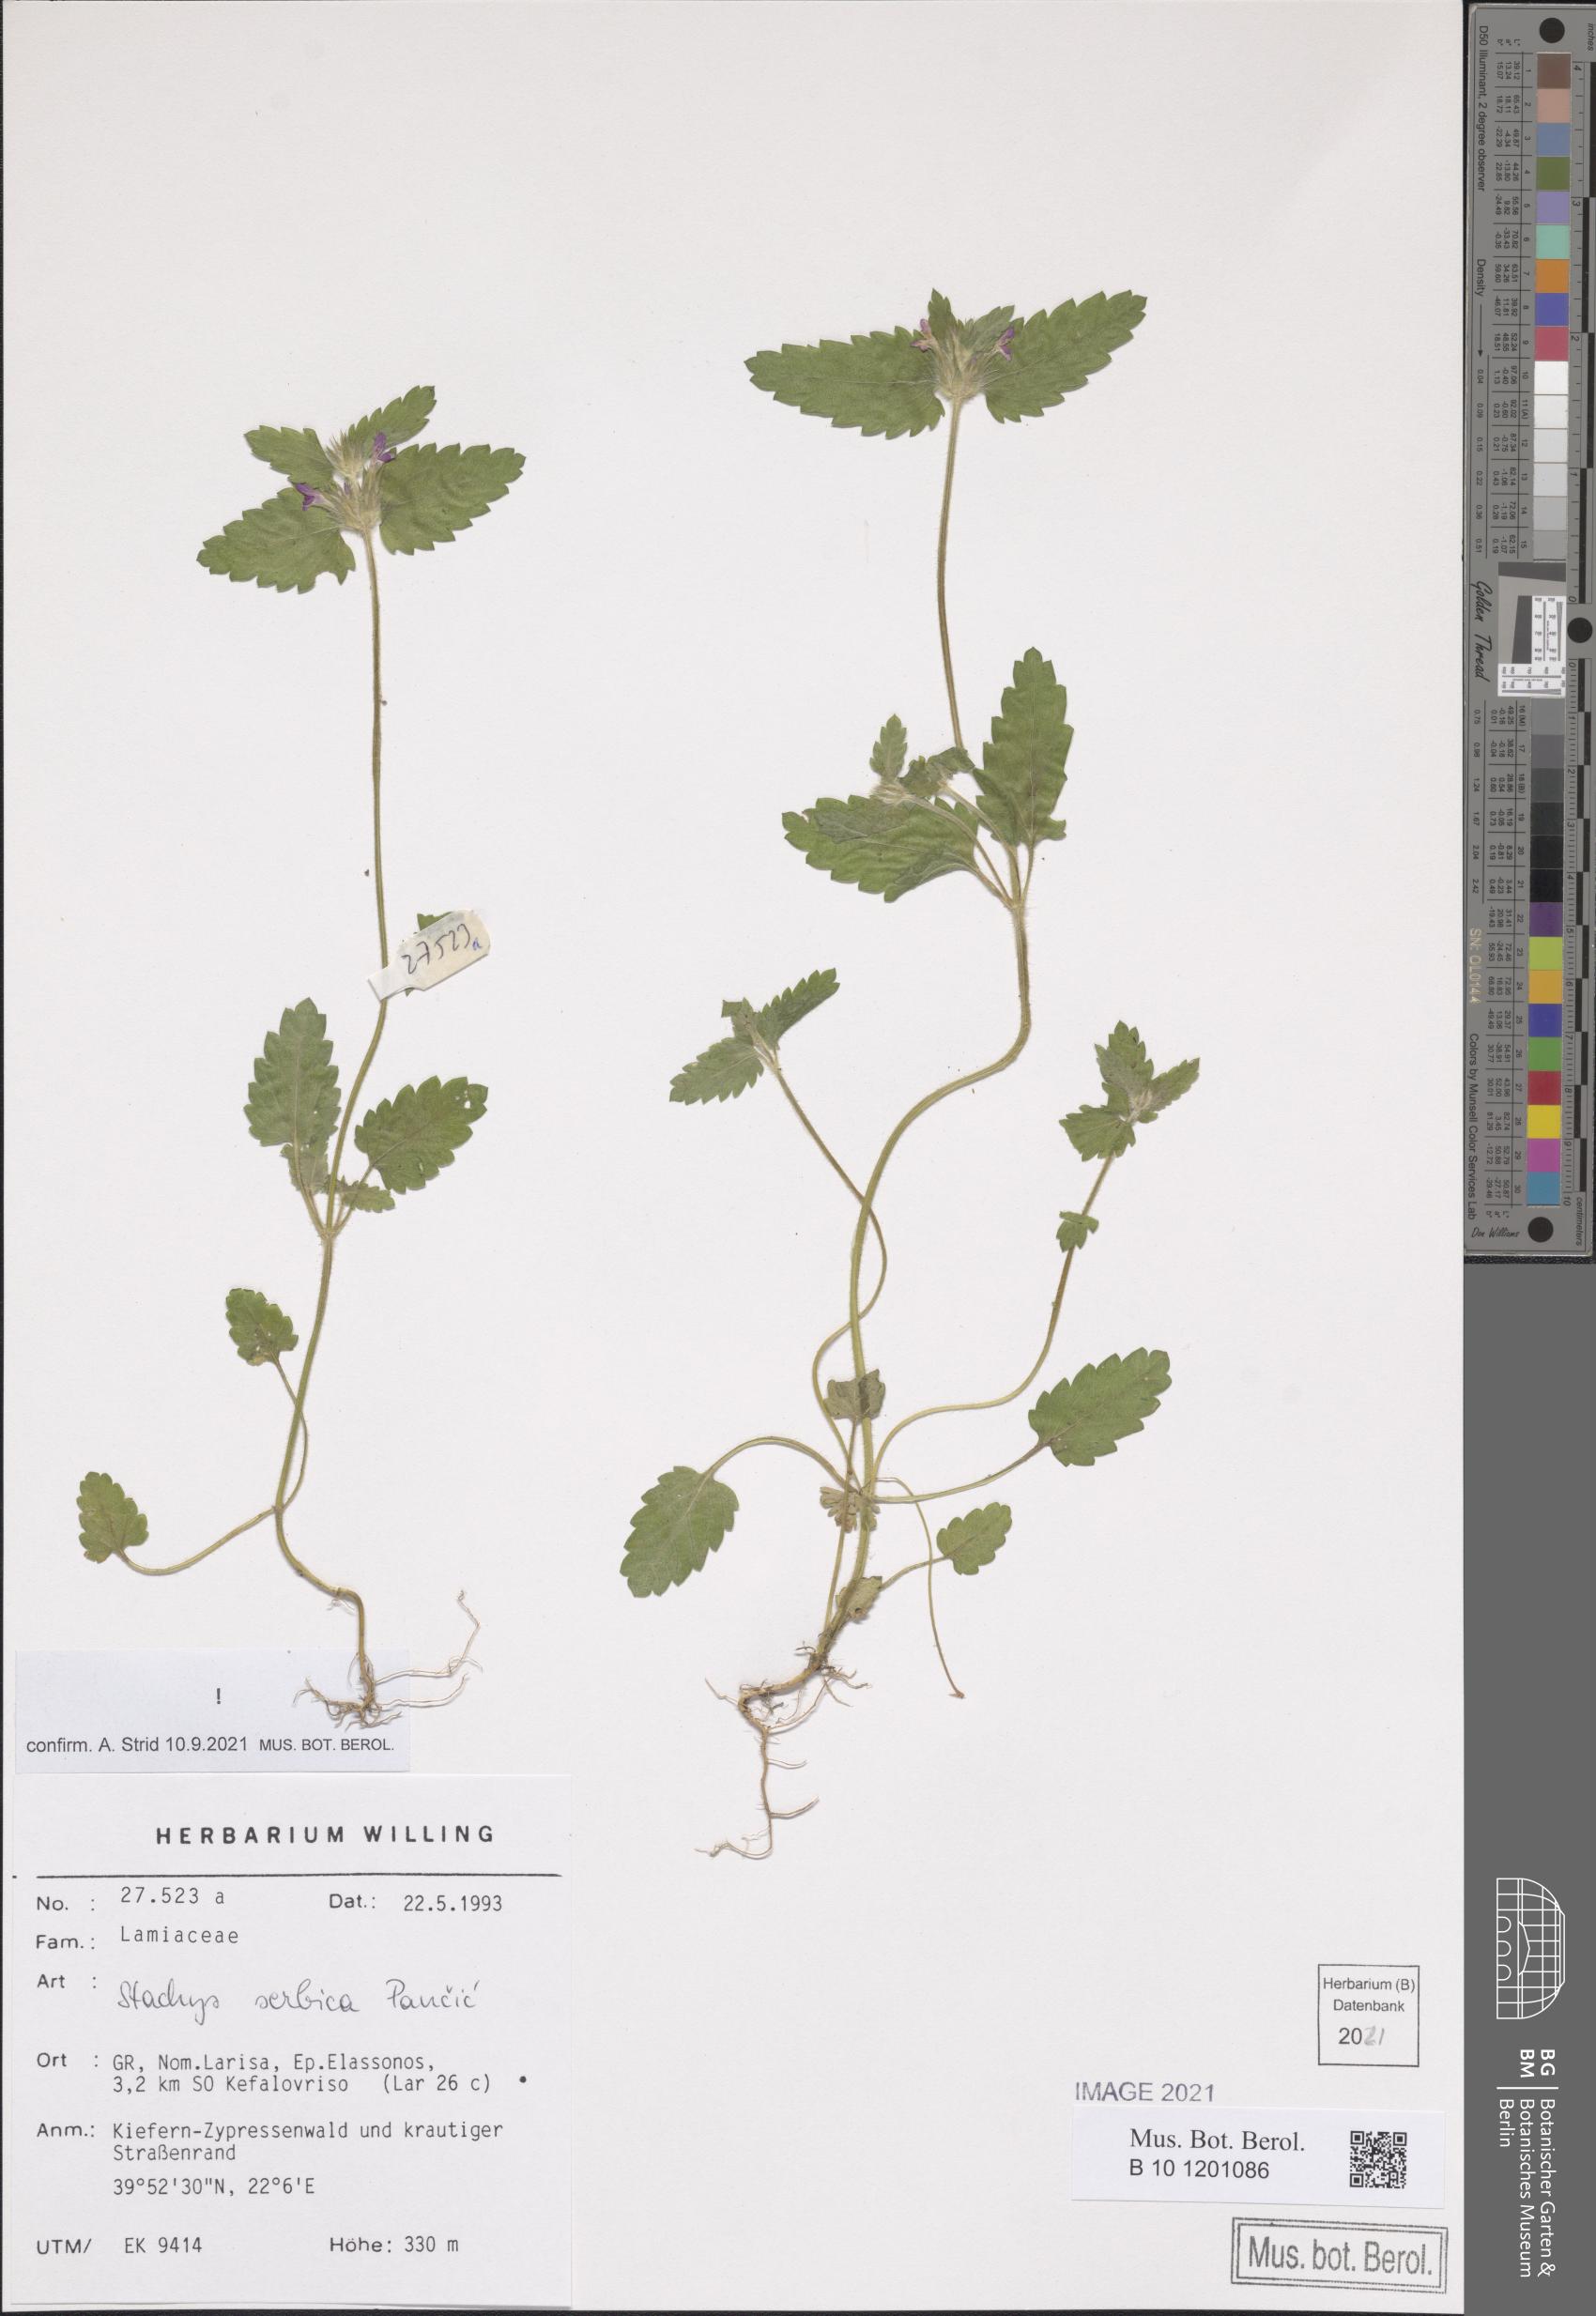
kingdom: Plantae
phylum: Tracheophyta
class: Magnoliopsida
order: Lamiales
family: Lamiaceae
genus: Stachys
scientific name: Stachys serbica
